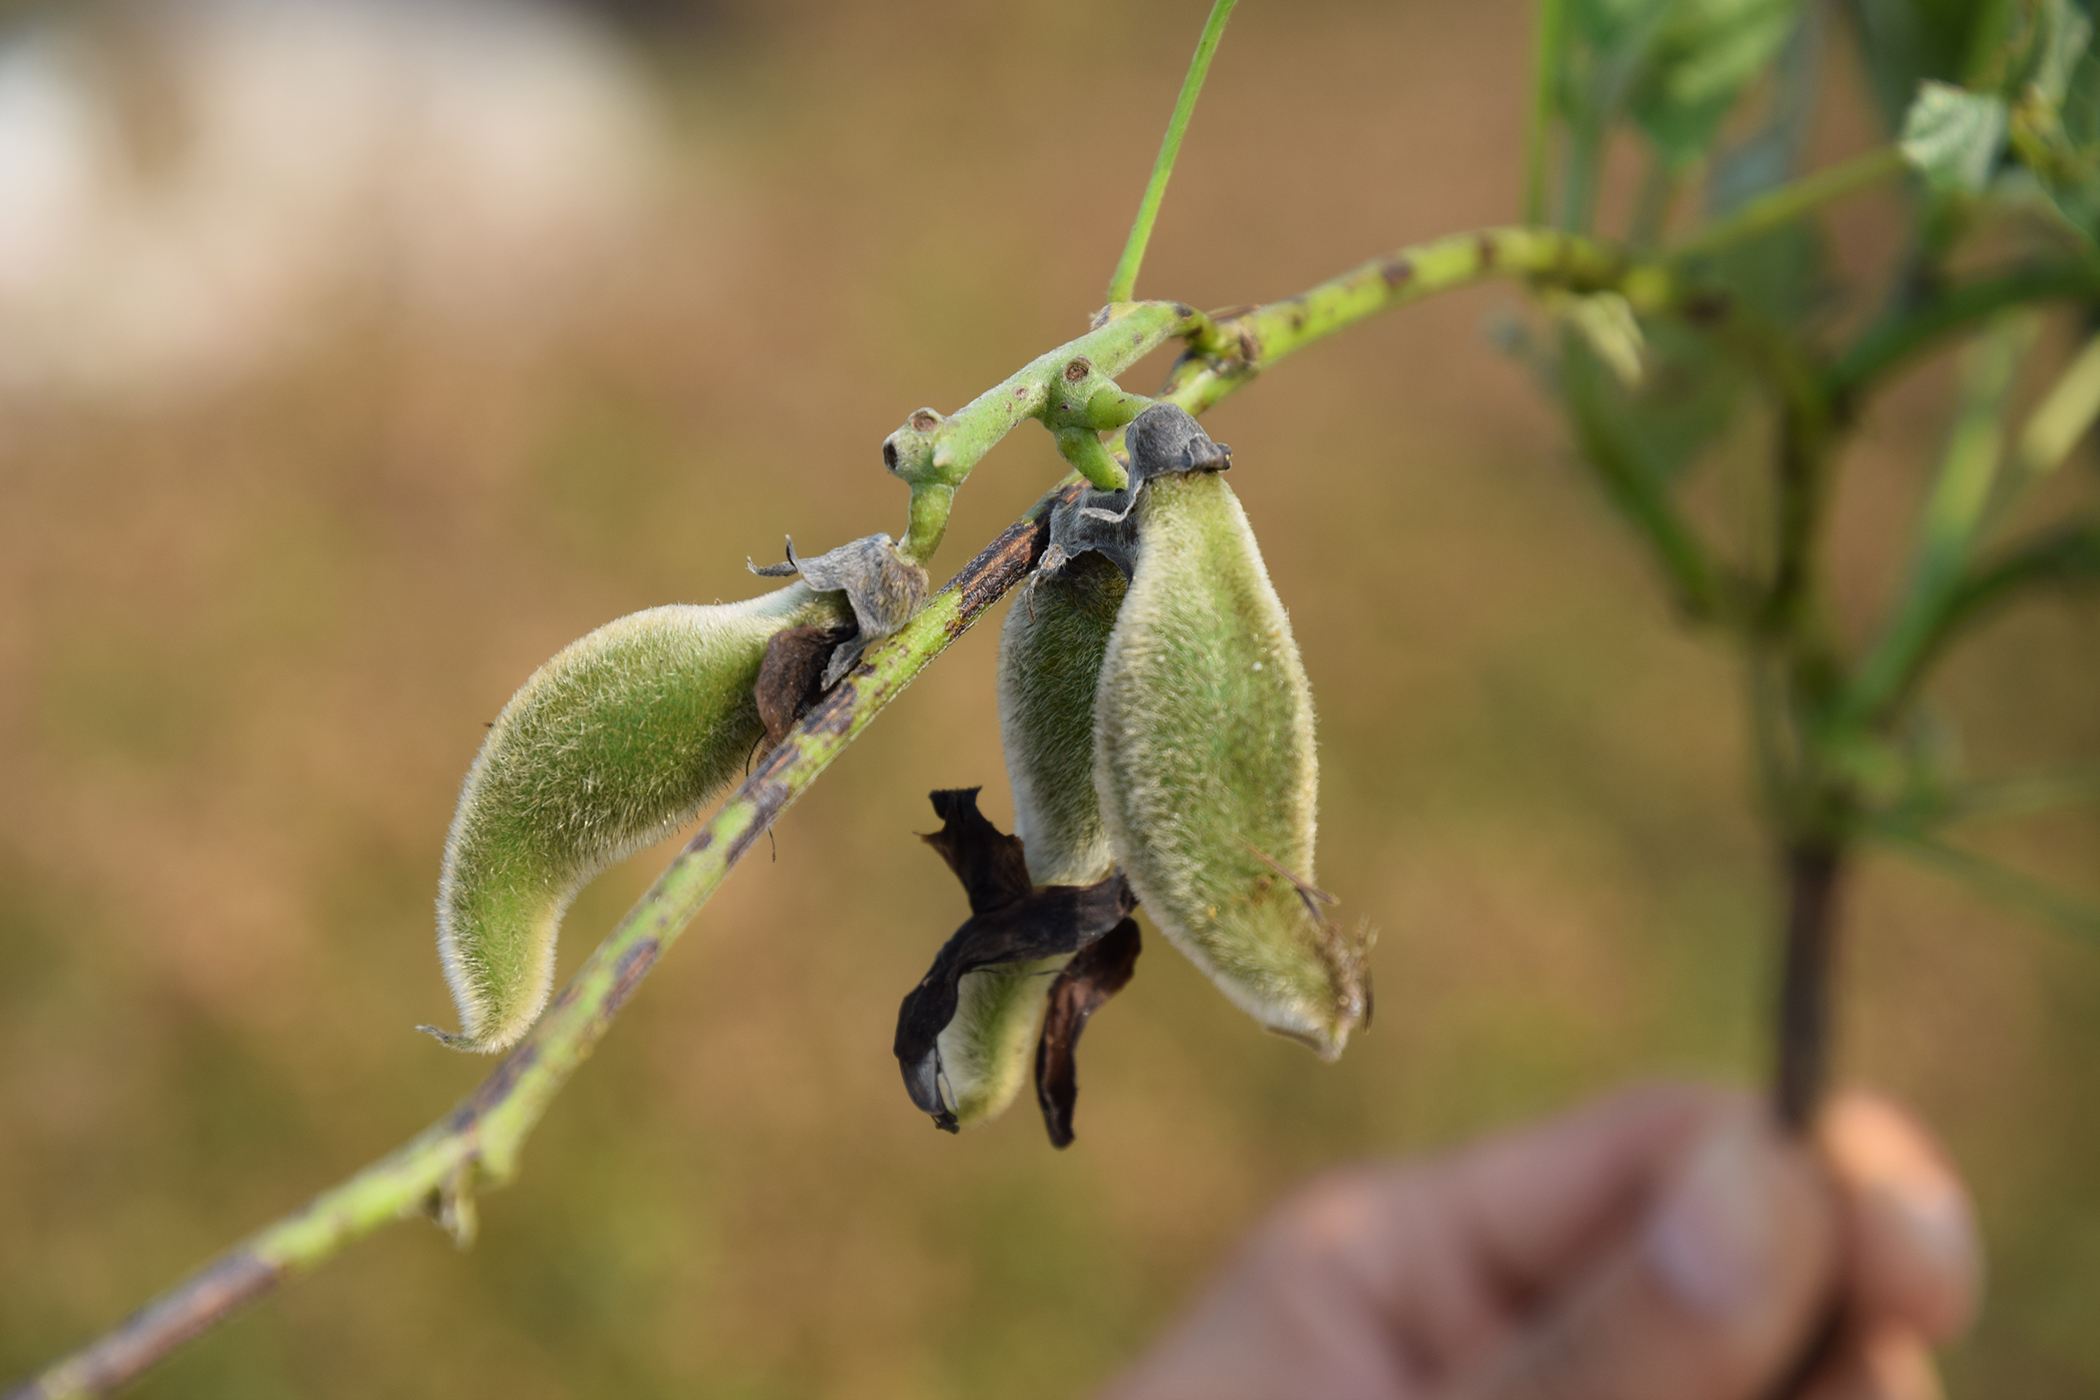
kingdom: Plantae
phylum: Tracheophyta
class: Magnoliopsida
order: Fabales
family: Fabaceae
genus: Mucuna
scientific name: Mucuna pruriens
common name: Cow-itch
